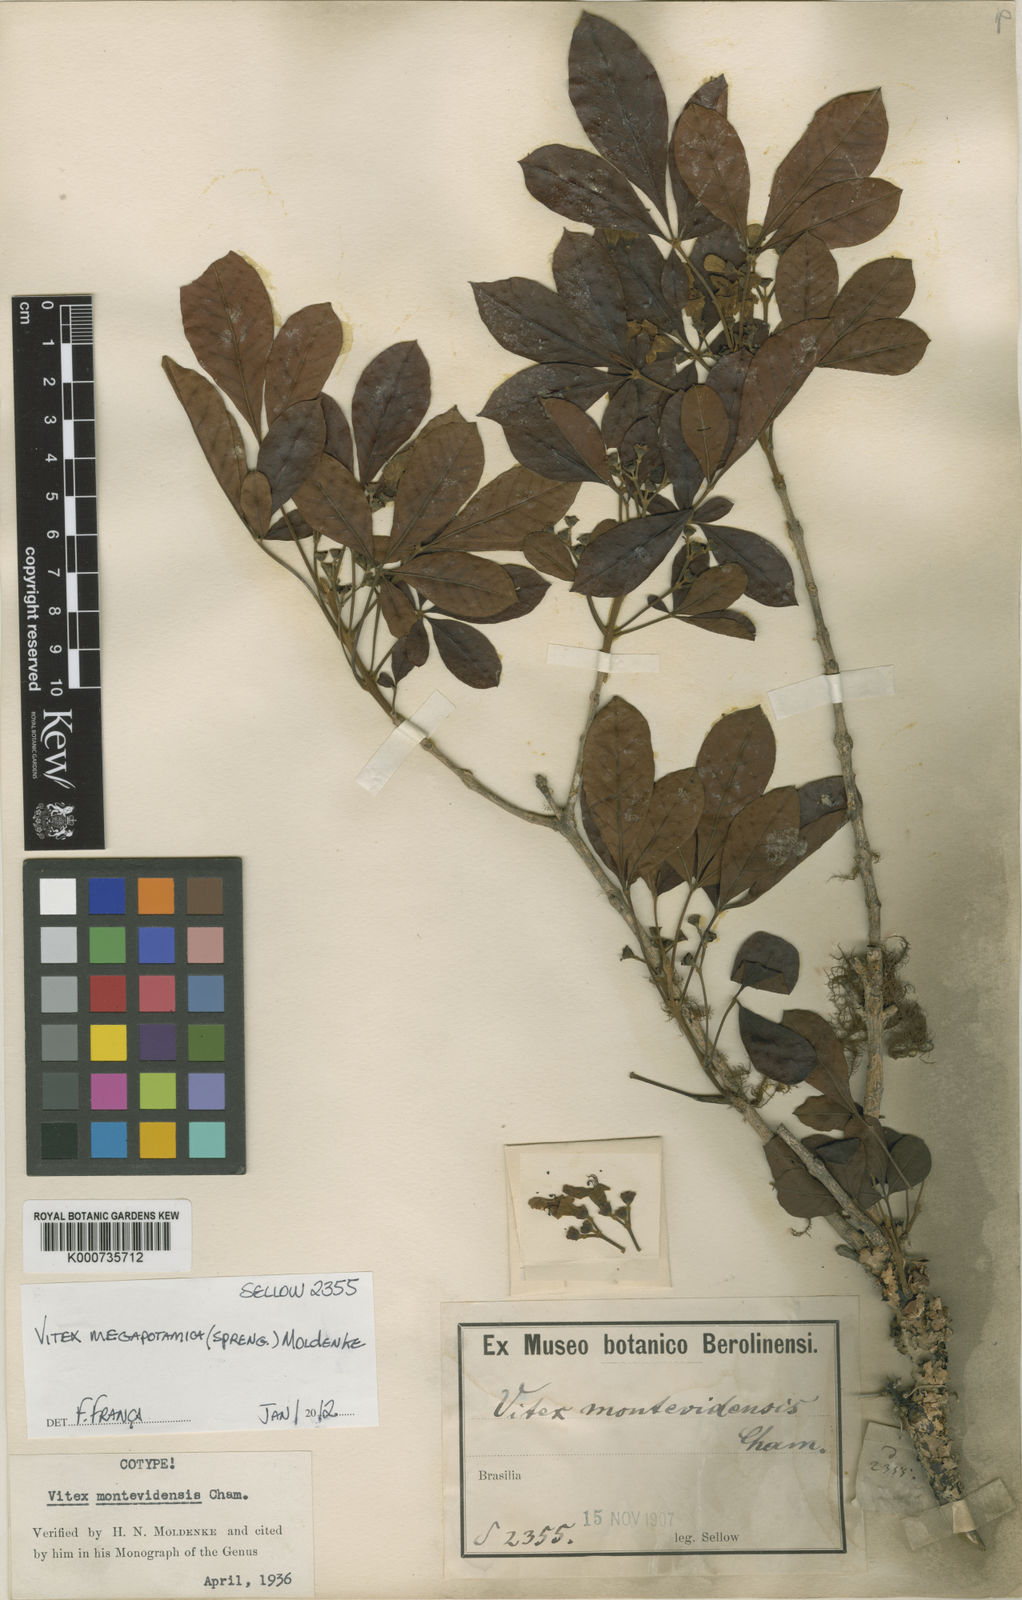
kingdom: Plantae
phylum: Tracheophyta
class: Magnoliopsida
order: Lamiales
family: Lamiaceae
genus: Vitex
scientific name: Vitex megapotamica
